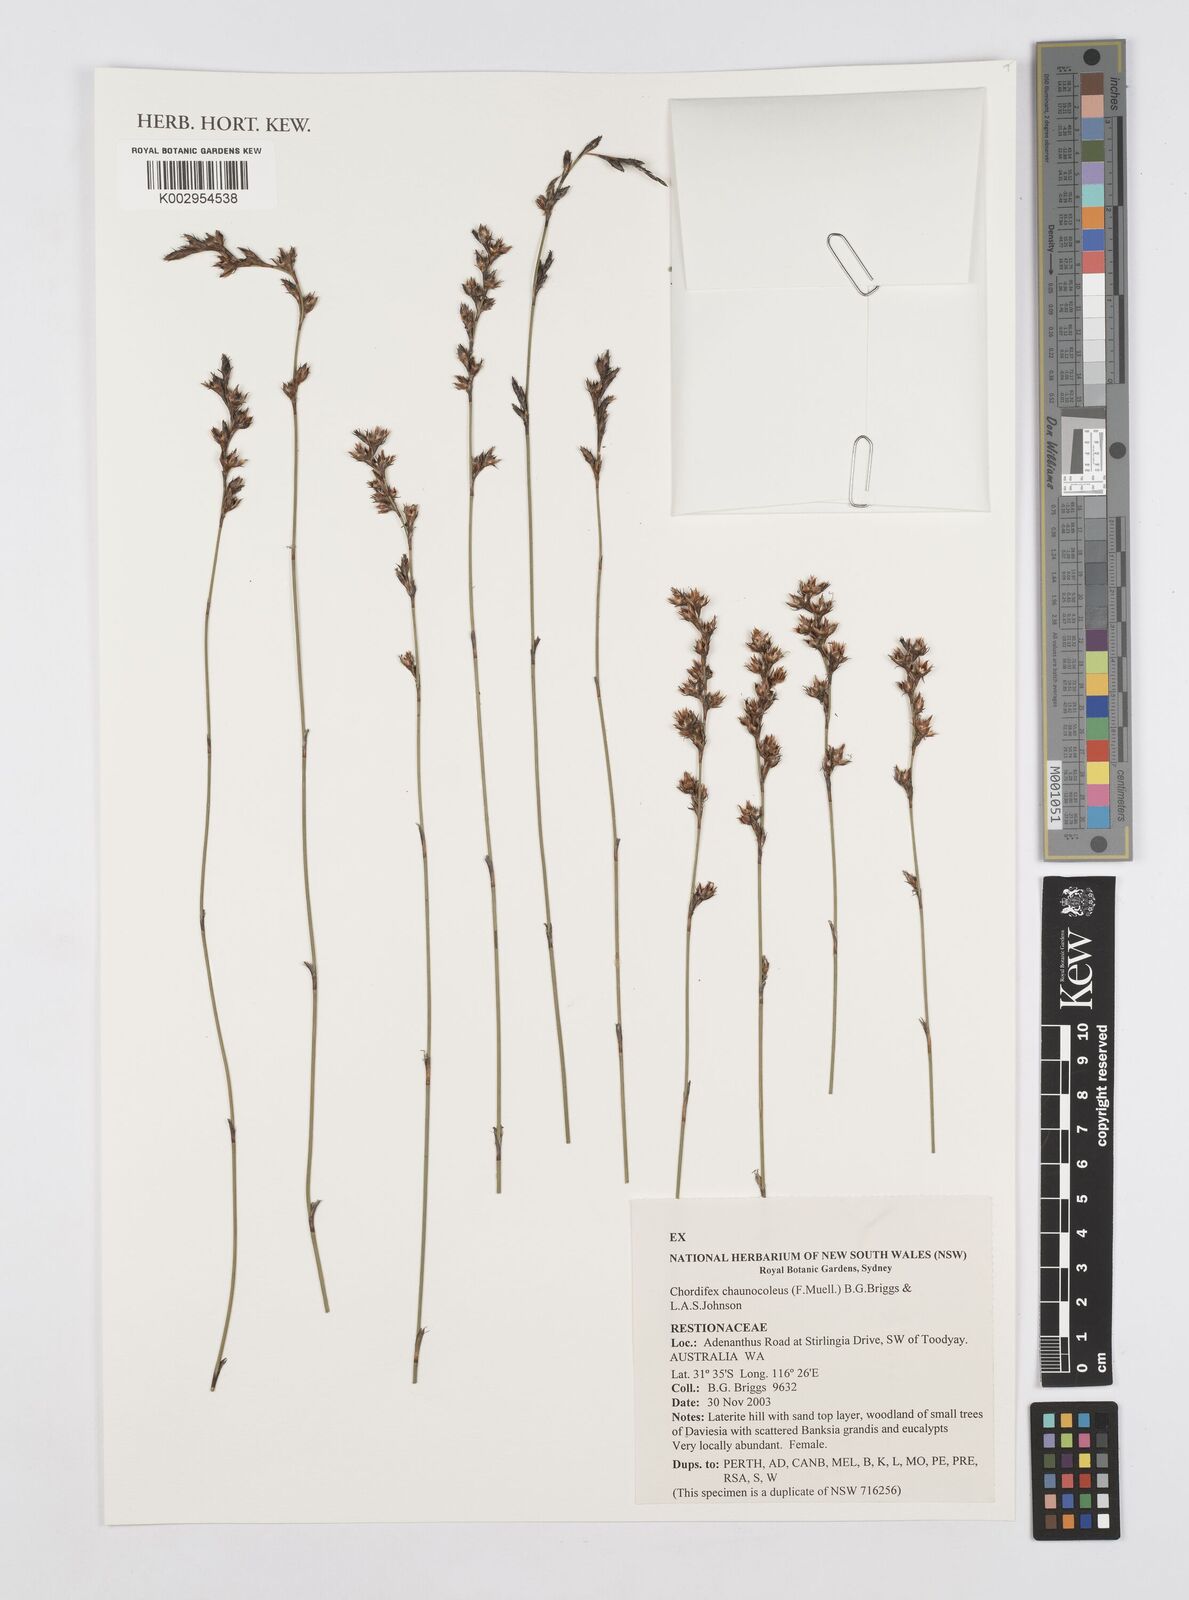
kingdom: Plantae
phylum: Tracheophyta
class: Liliopsida
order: Poales
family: Restionaceae
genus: Chordifex
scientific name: Chordifex chaunocoleus
